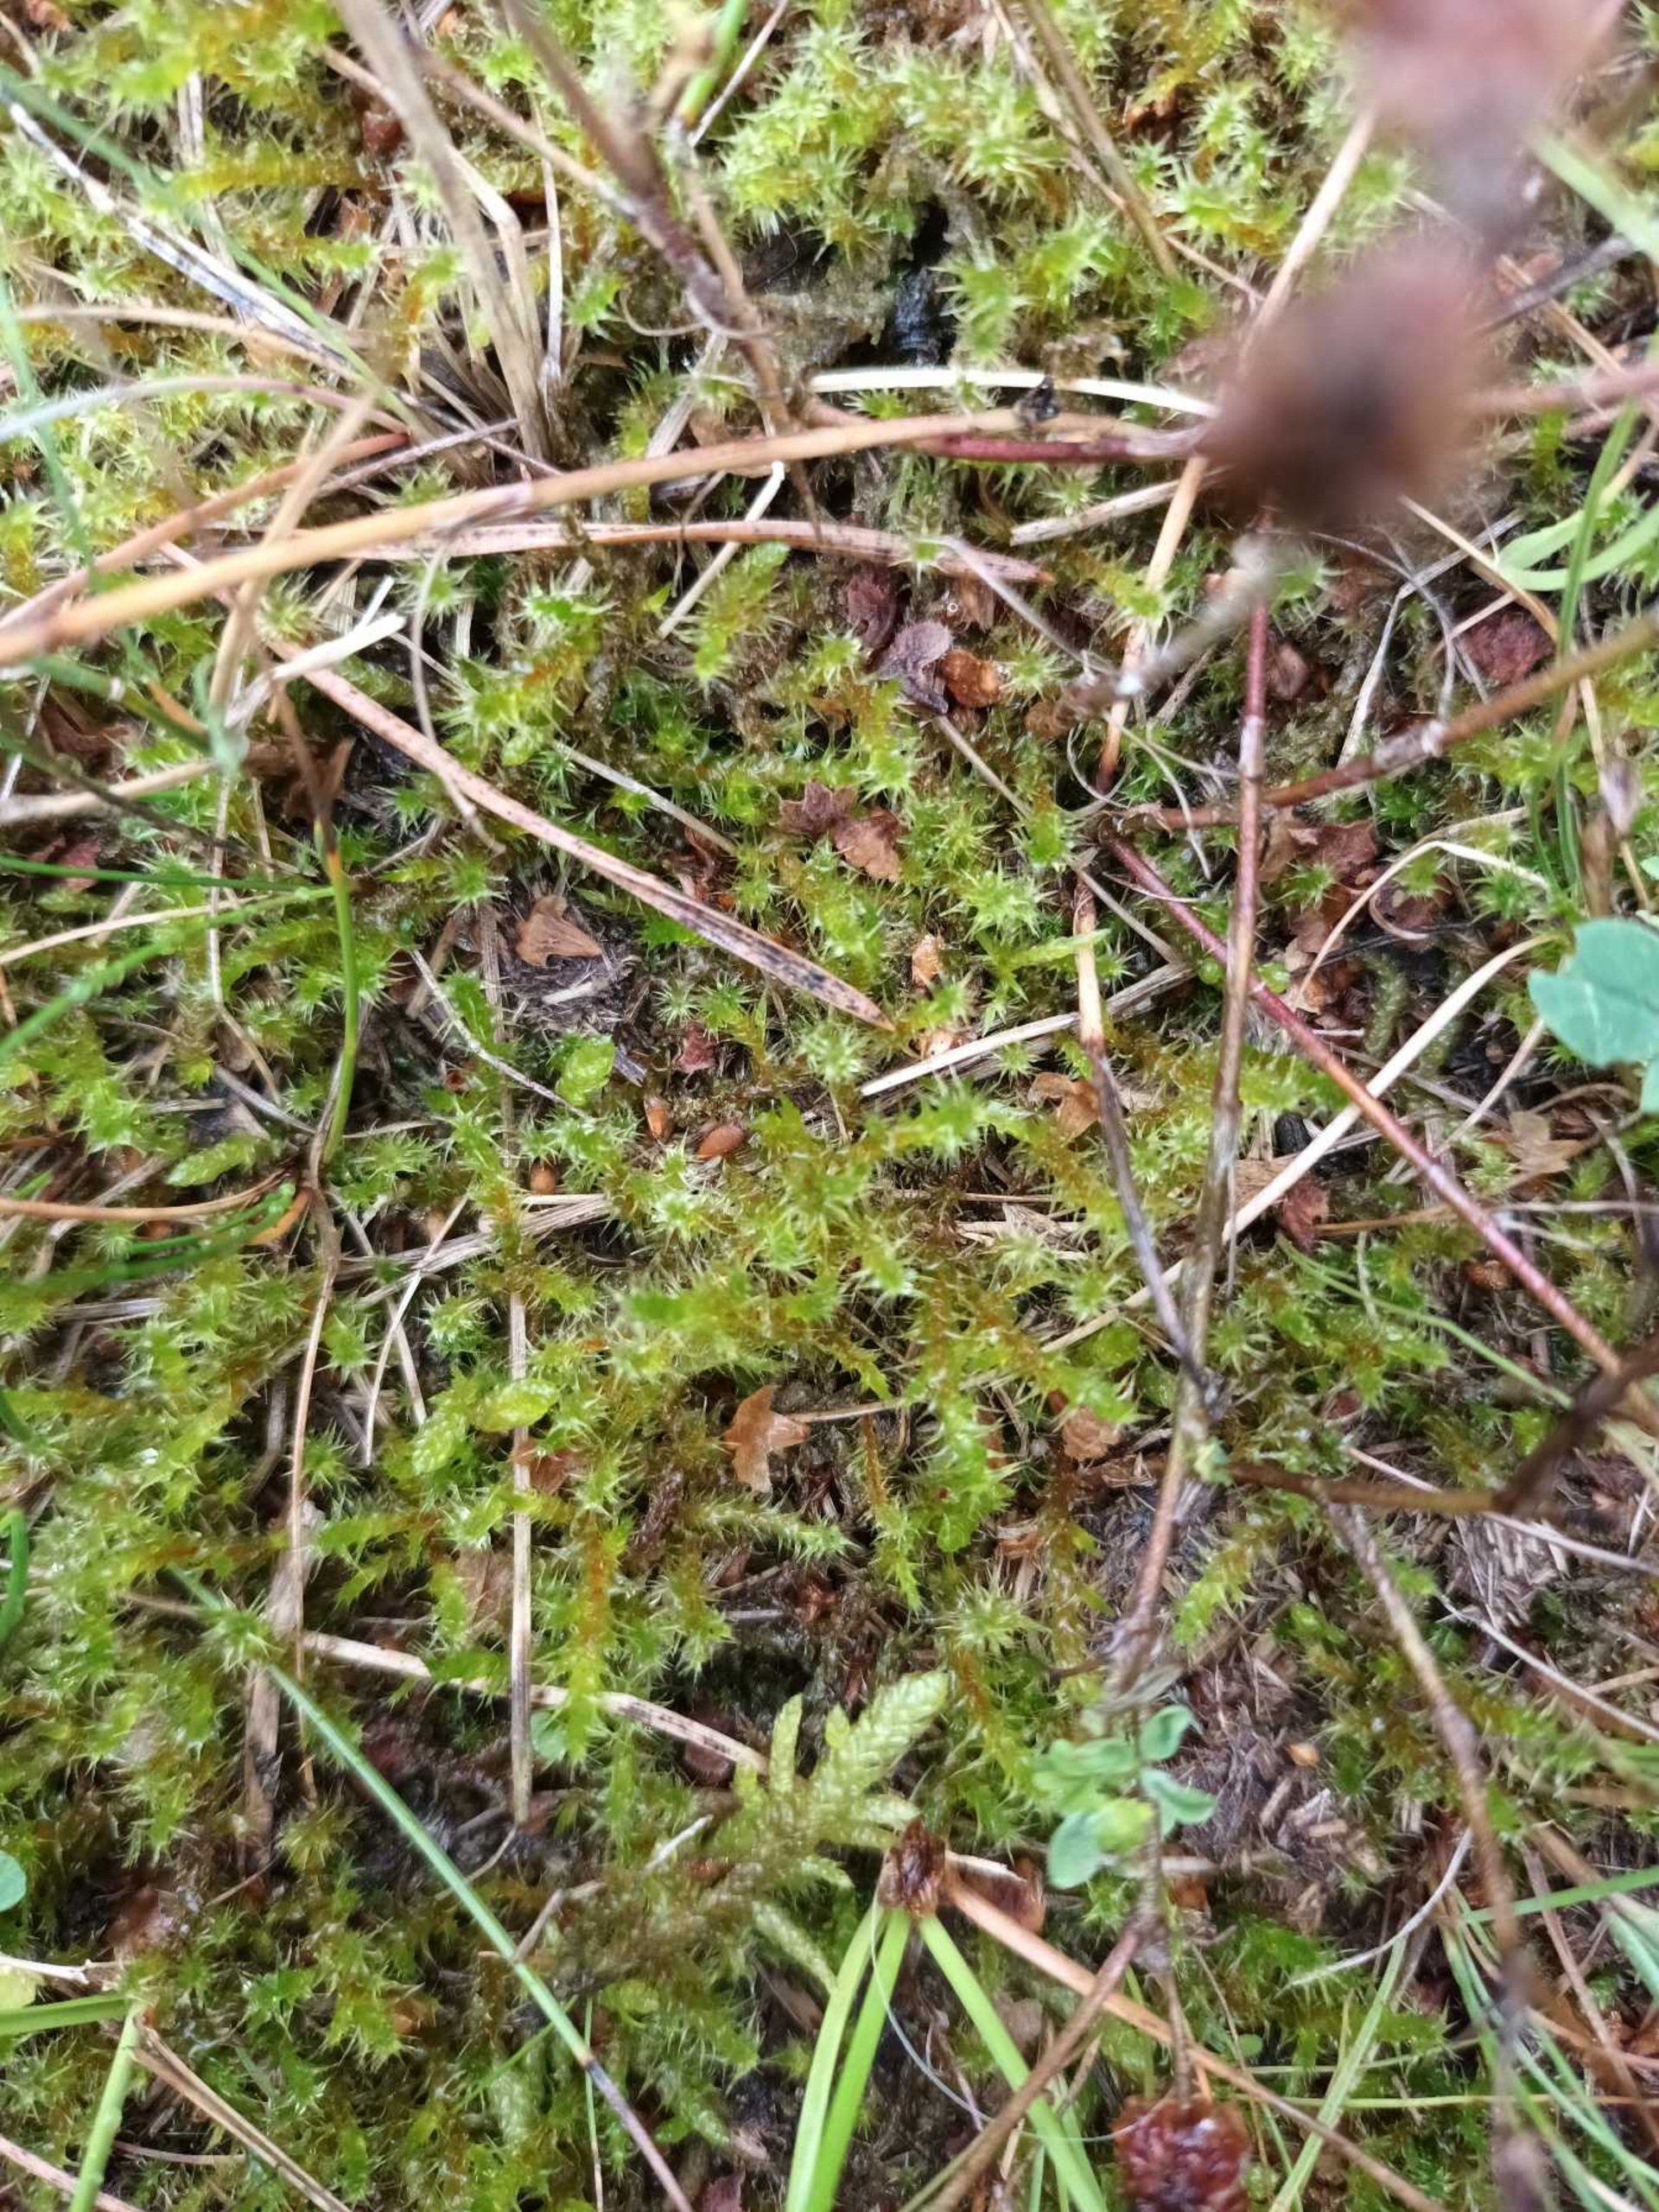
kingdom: Plantae
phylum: Bryophyta
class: Bryopsida
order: Hypnales
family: Hylocomiaceae
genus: Rhytidiadelphus
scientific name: Rhytidiadelphus squarrosus
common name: Plæne-kransemos
